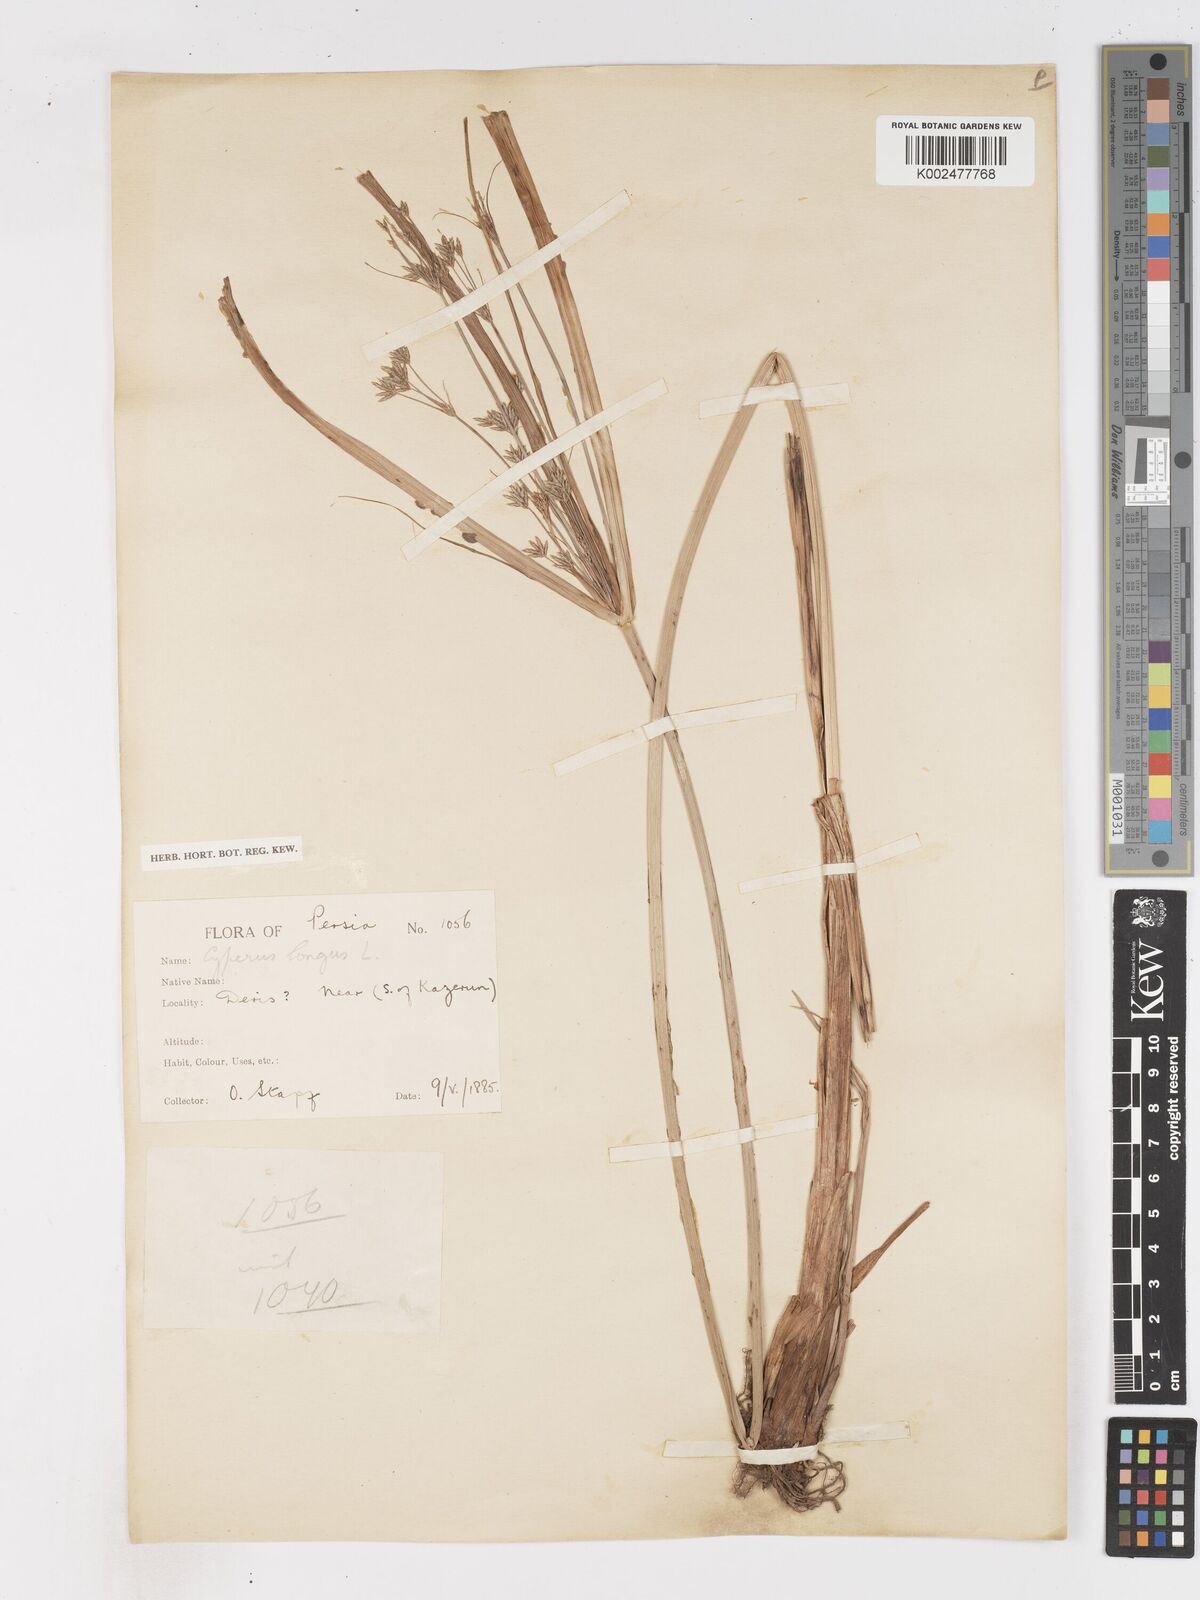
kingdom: Plantae
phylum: Tracheophyta
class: Liliopsida
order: Poales
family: Cyperaceae
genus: Cyperus
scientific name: Cyperus longus
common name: Galingale
